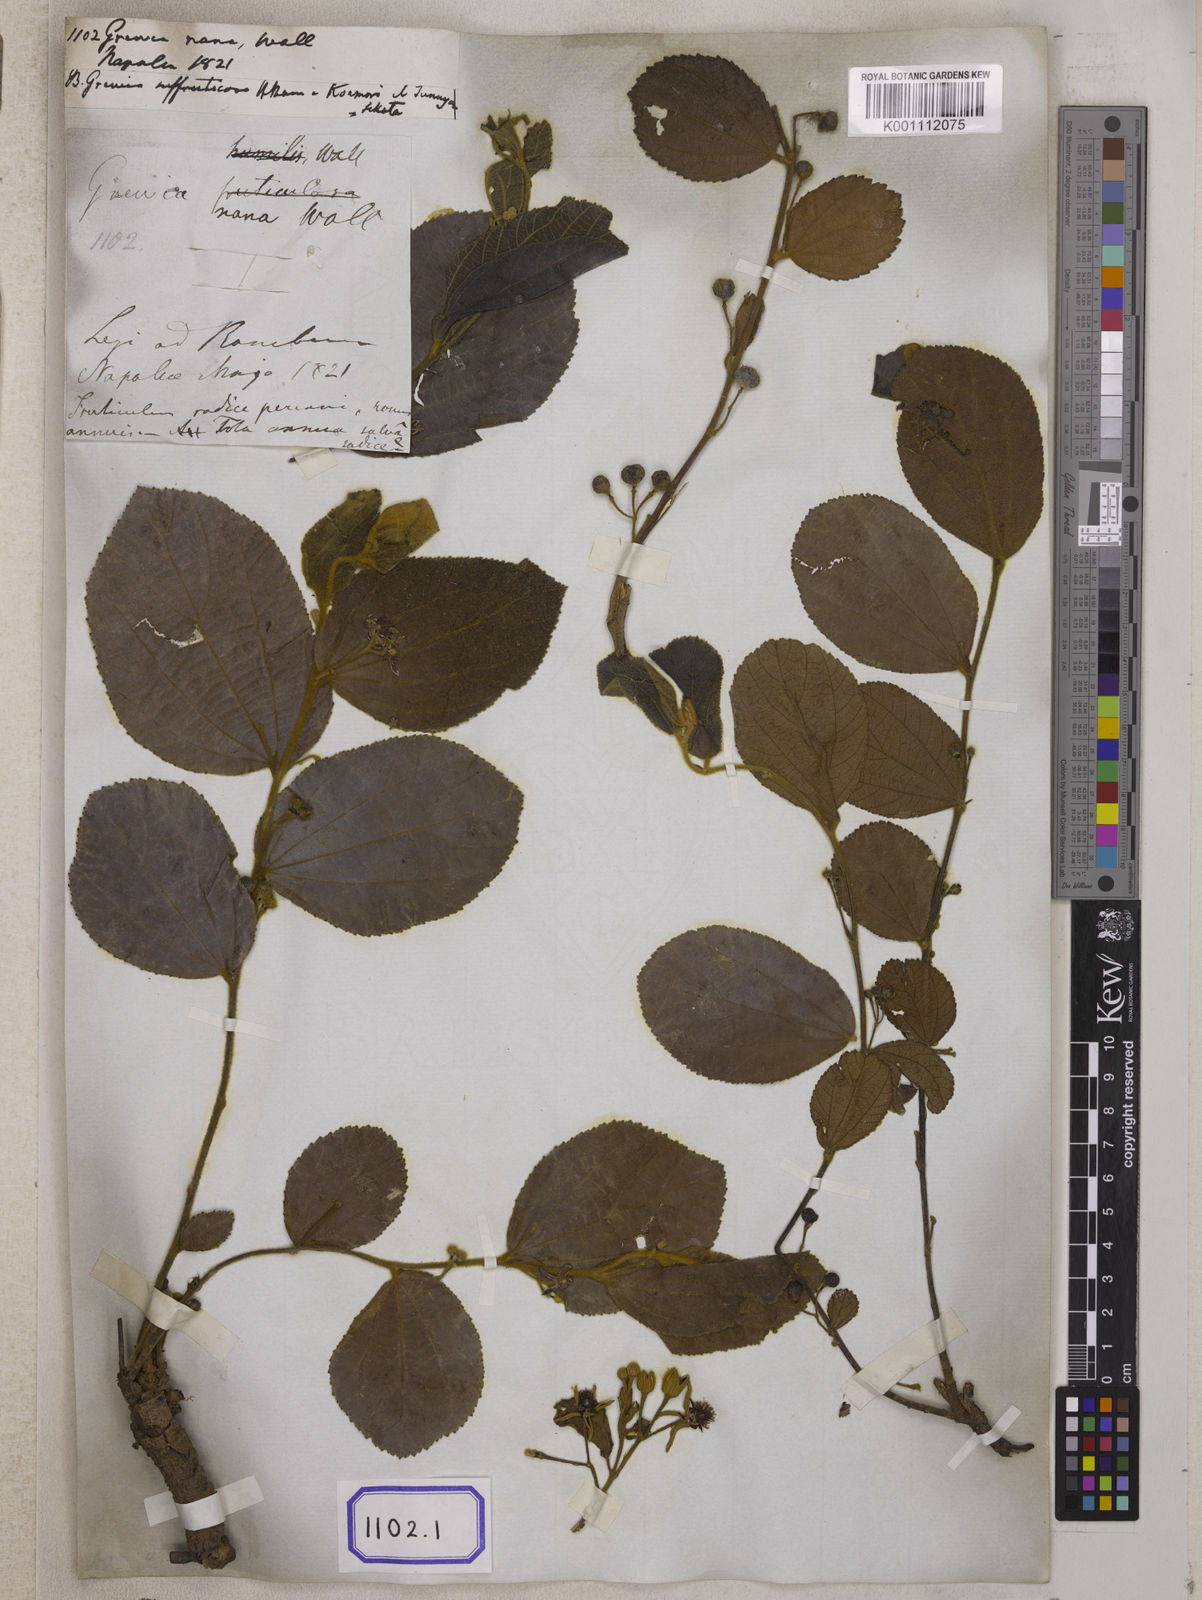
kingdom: Plantae
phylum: Tracheophyta
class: Magnoliopsida
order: Malvales
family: Malvaceae
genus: Grewia
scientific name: Grewia sapida
